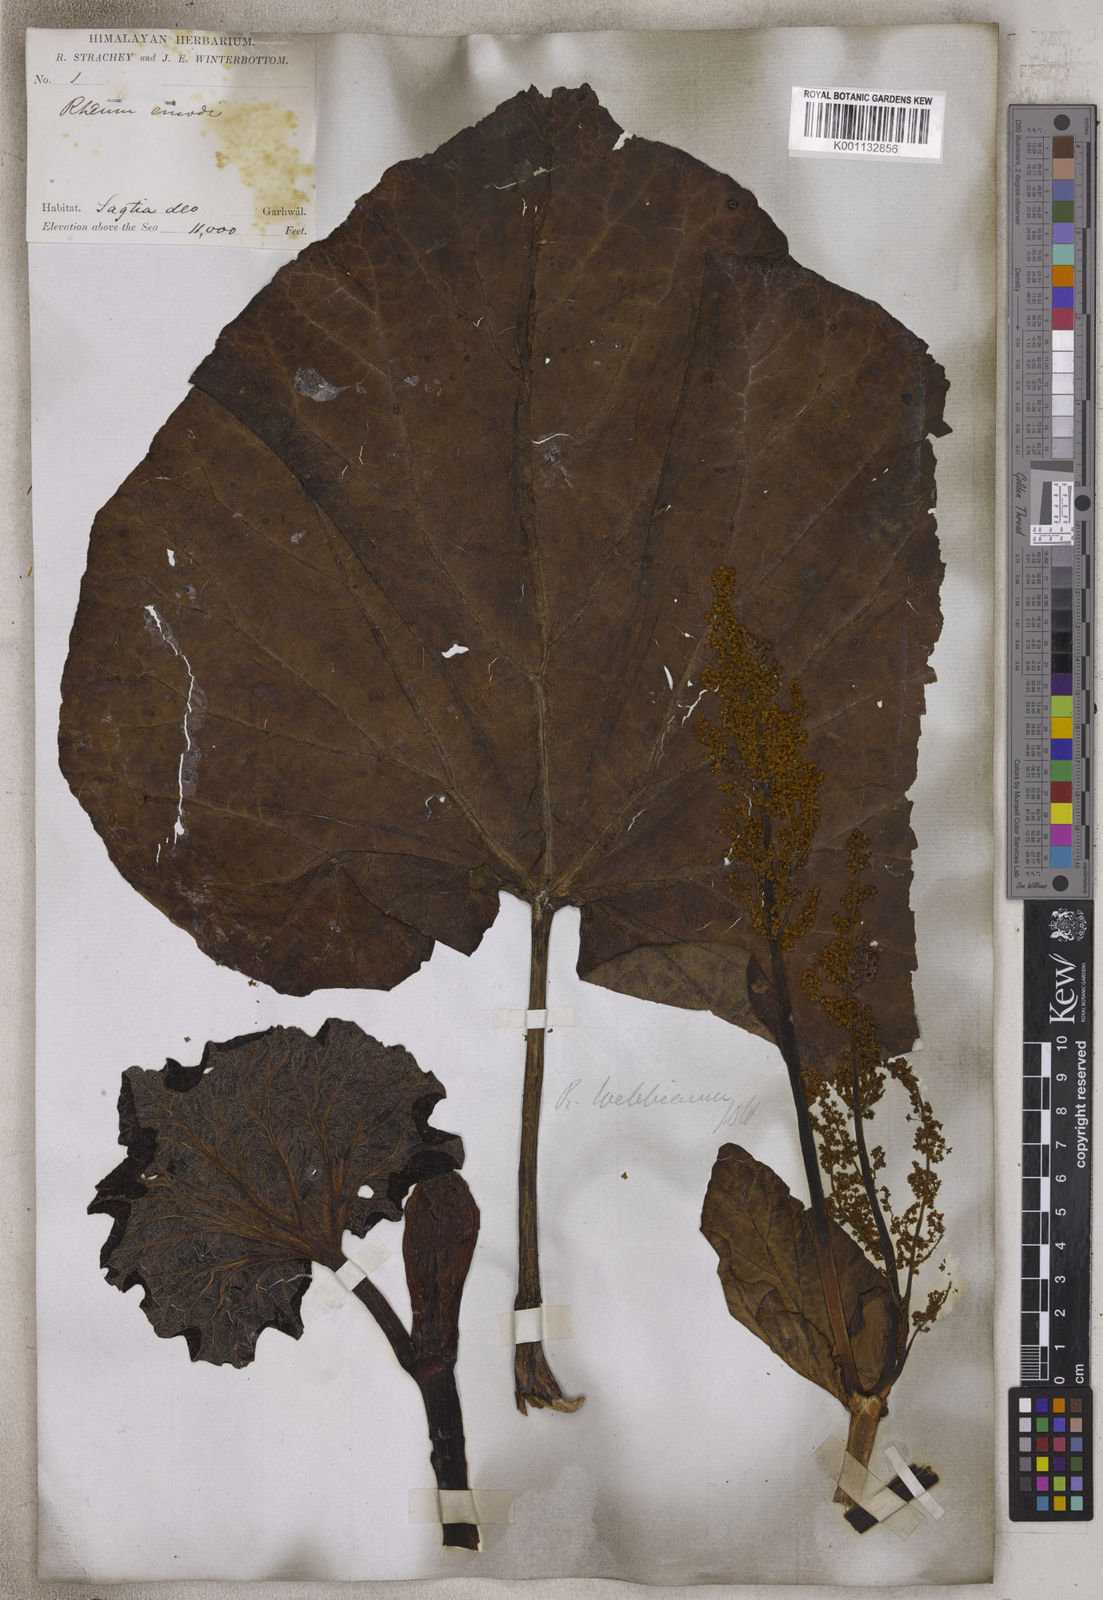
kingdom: Plantae
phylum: Tracheophyta
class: Magnoliopsida
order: Caryophyllales
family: Polygonaceae
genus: Rheum
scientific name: Rheum
